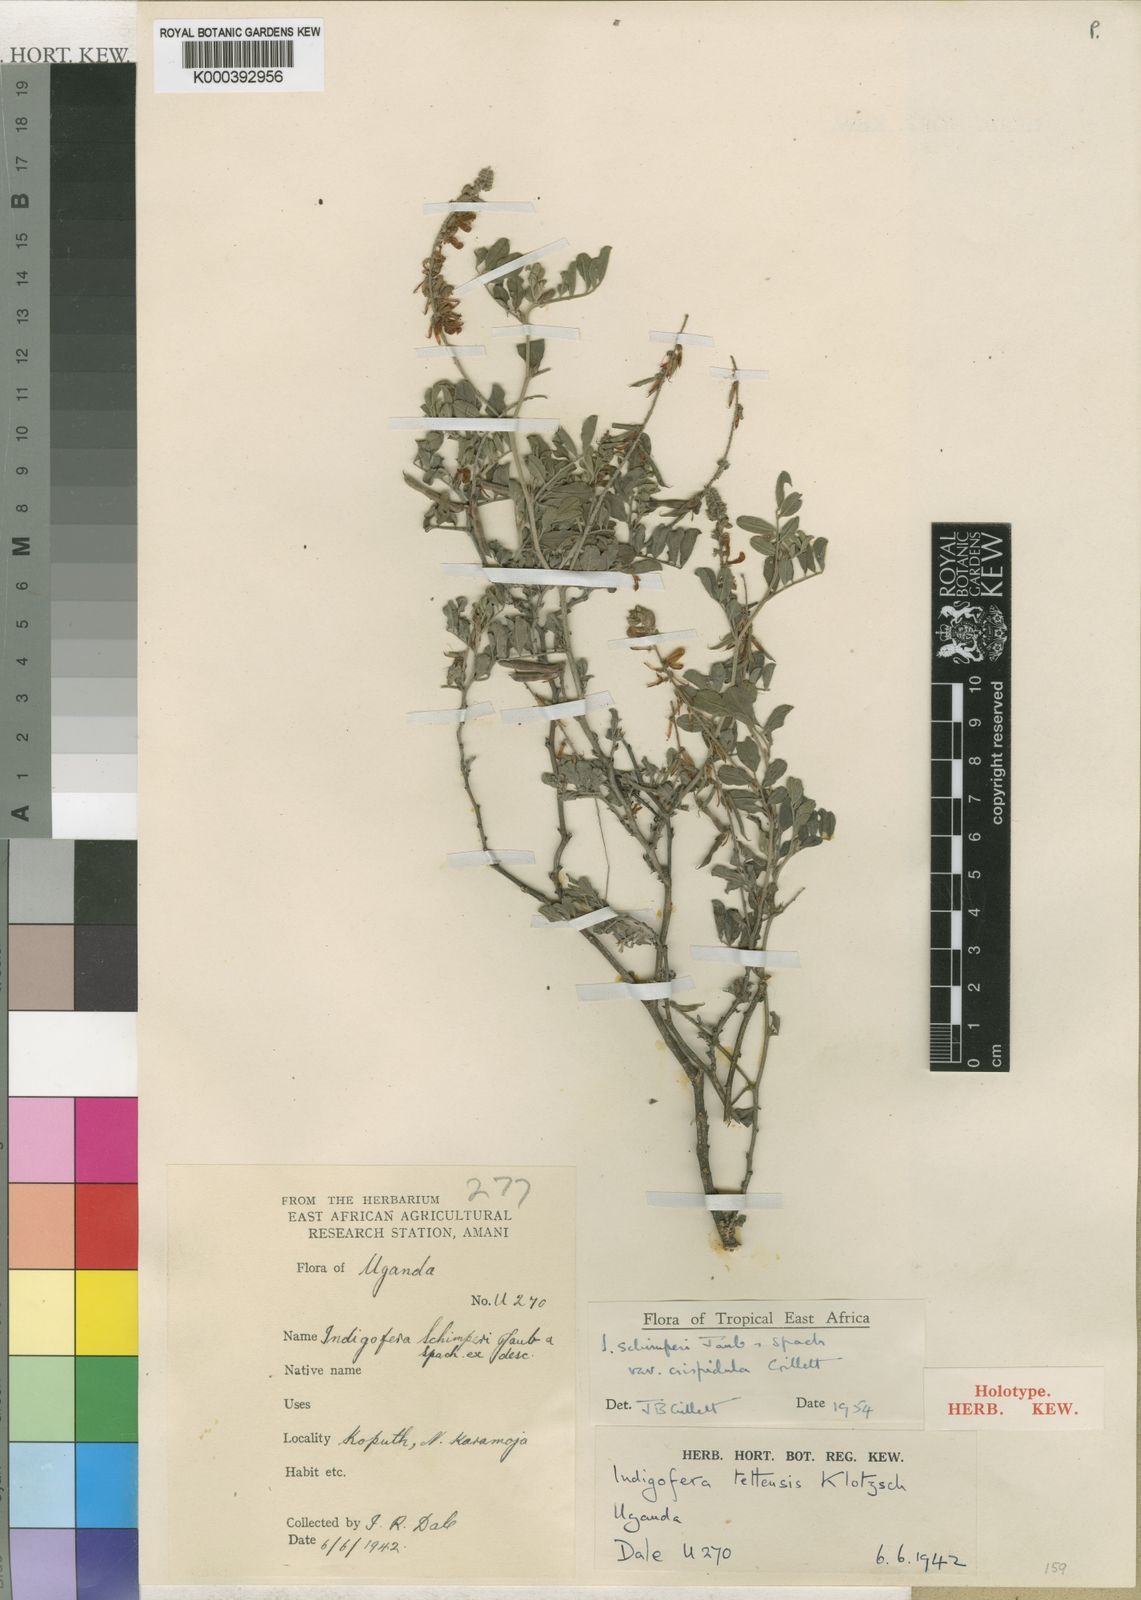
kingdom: Plantae
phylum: Tracheophyta
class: Magnoliopsida
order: Fabales
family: Fabaceae
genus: Indigofera
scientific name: Indigofera schimperi
